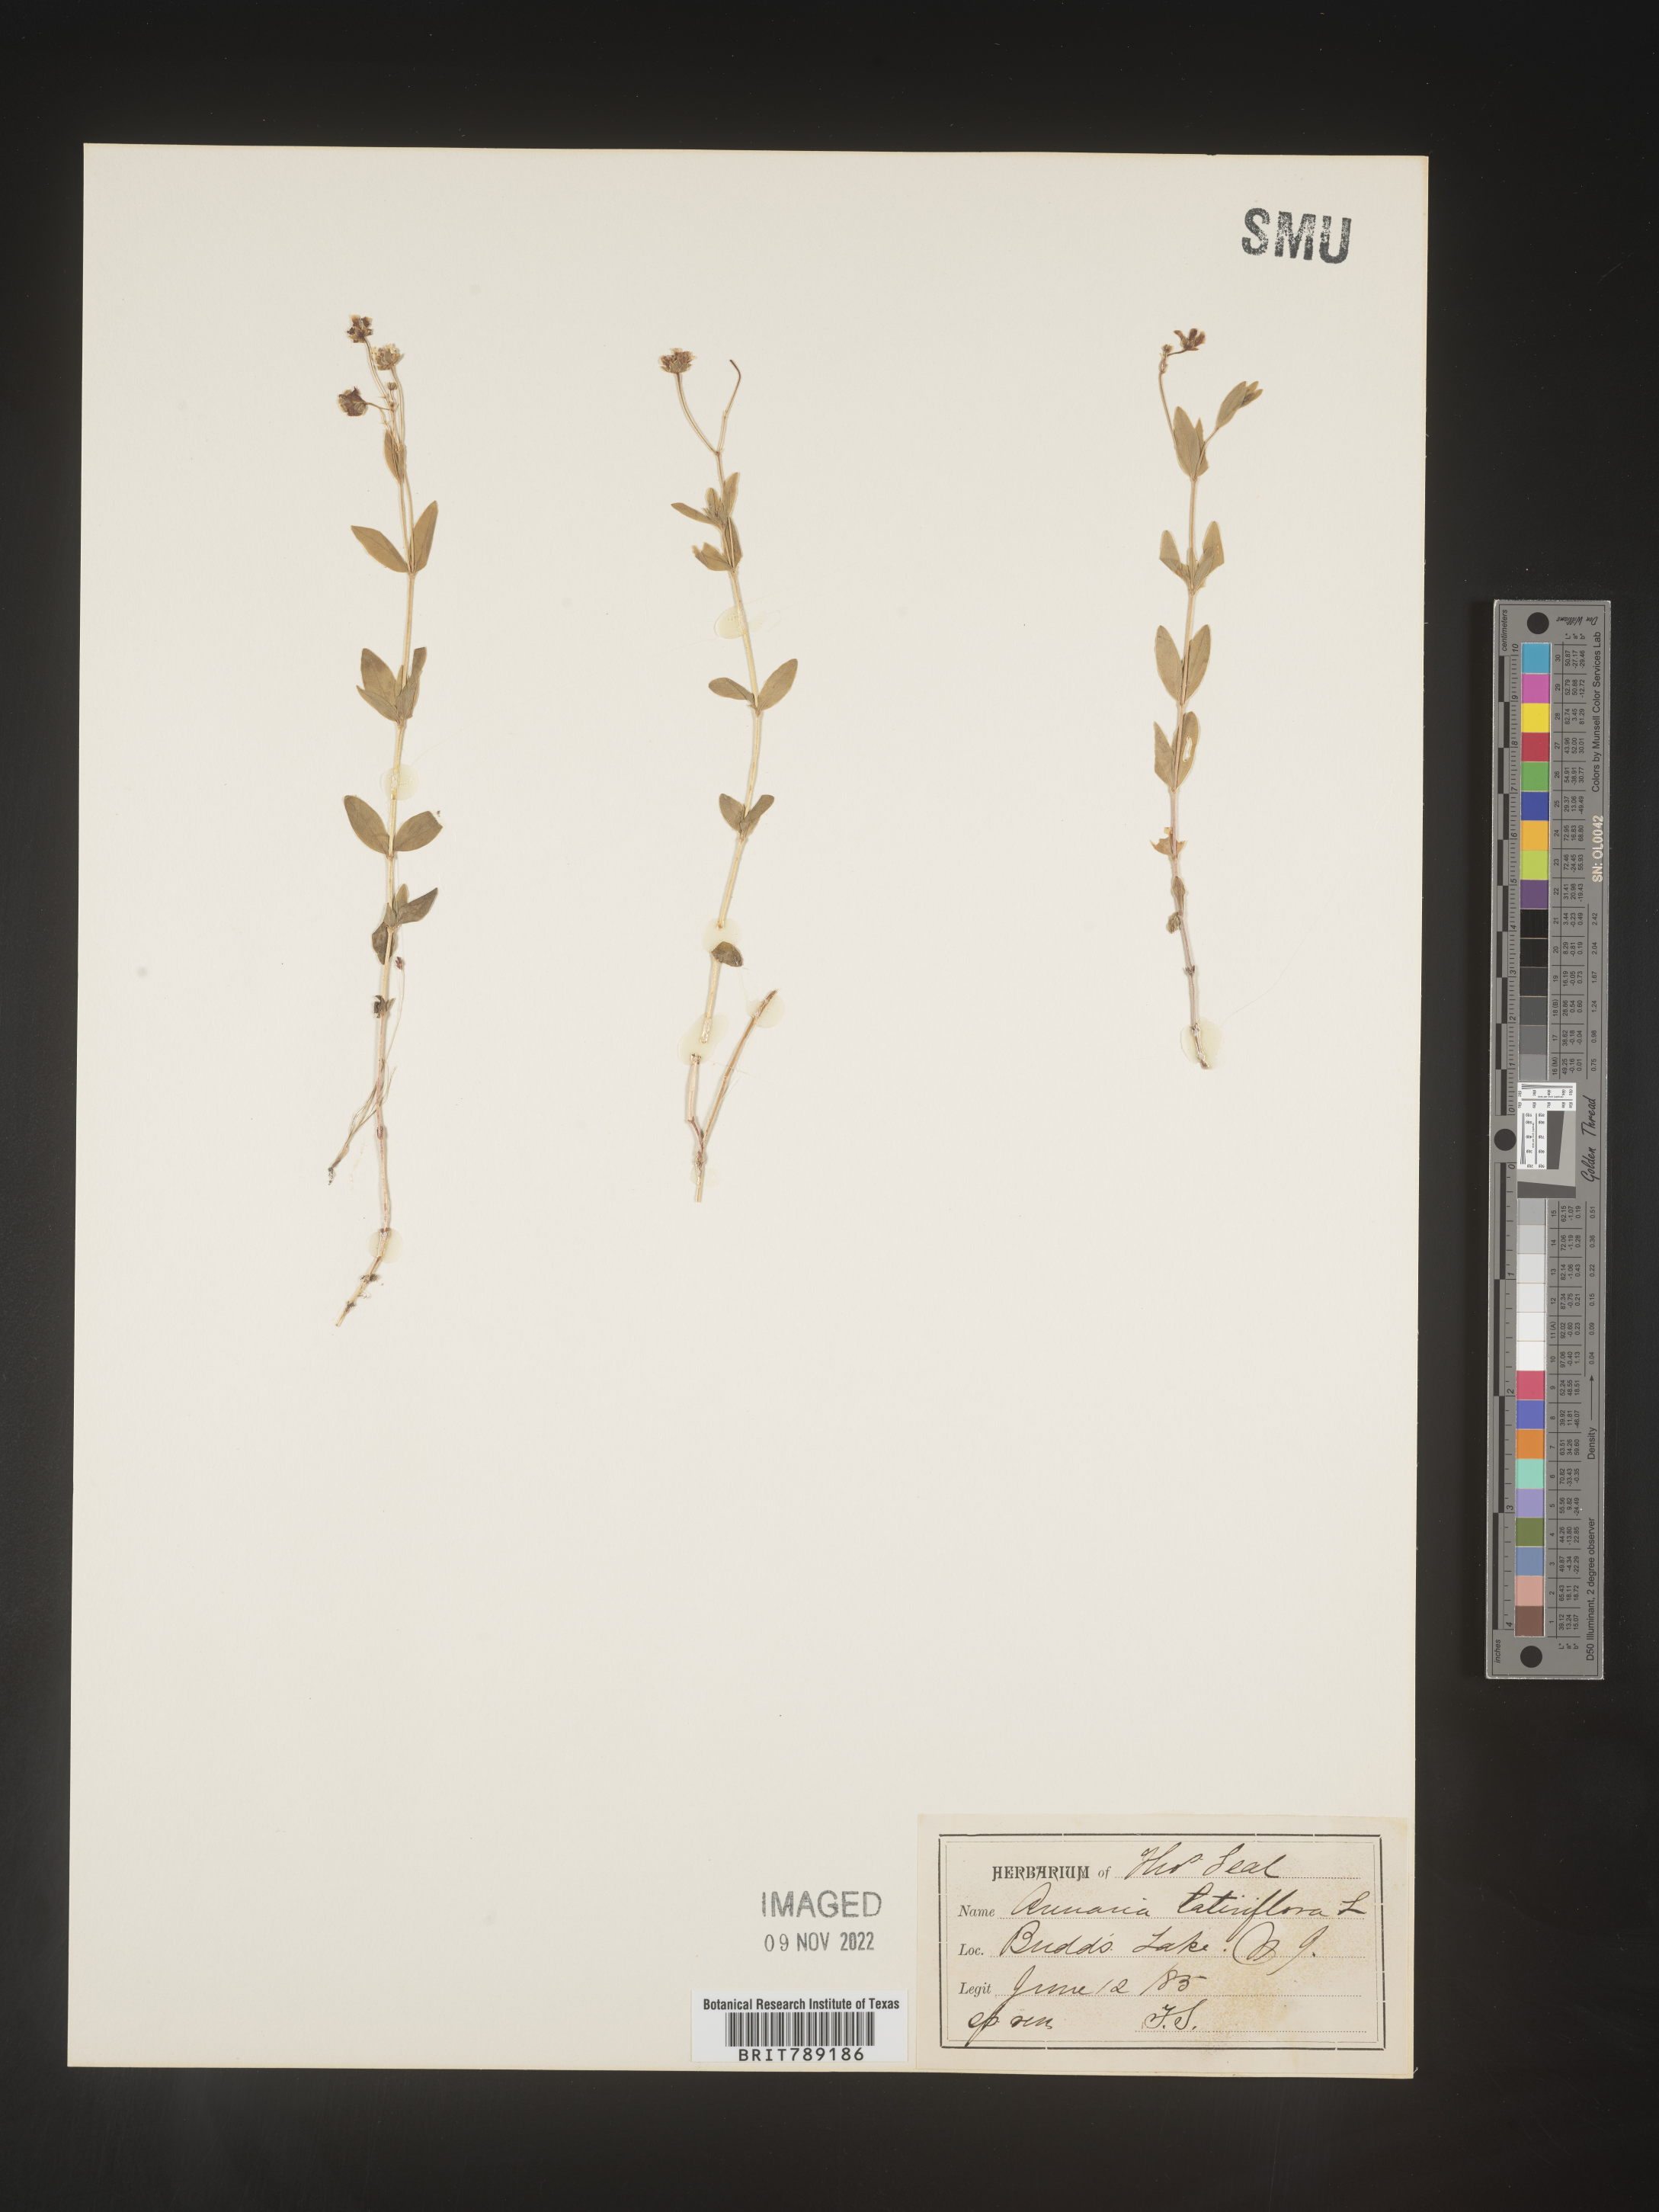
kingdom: Plantae
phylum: Tracheophyta
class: Magnoliopsida
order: Caryophyllales
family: Caryophyllaceae
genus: Arenaria
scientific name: Arenaria
